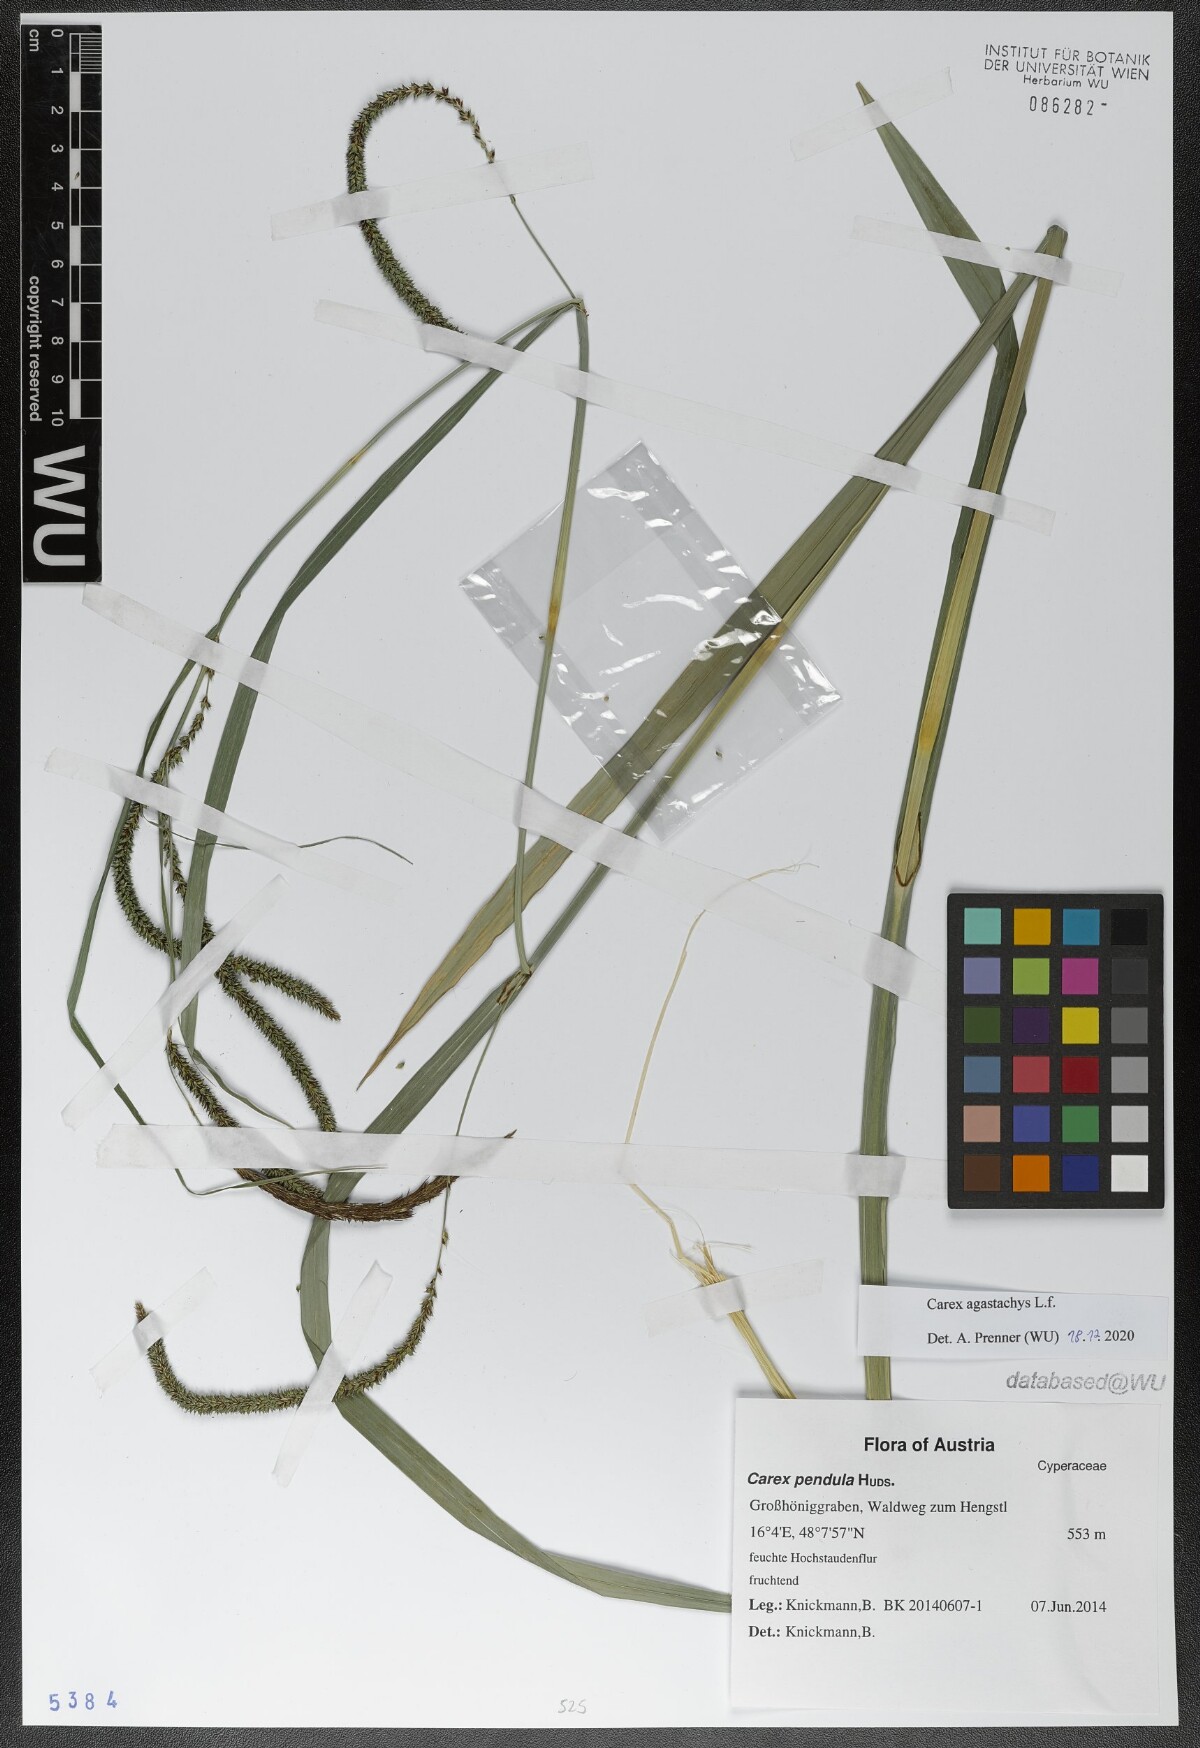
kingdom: Plantae
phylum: Tracheophyta
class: Liliopsida
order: Poales
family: Cyperaceae
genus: Carex
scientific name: Carex agastachys
